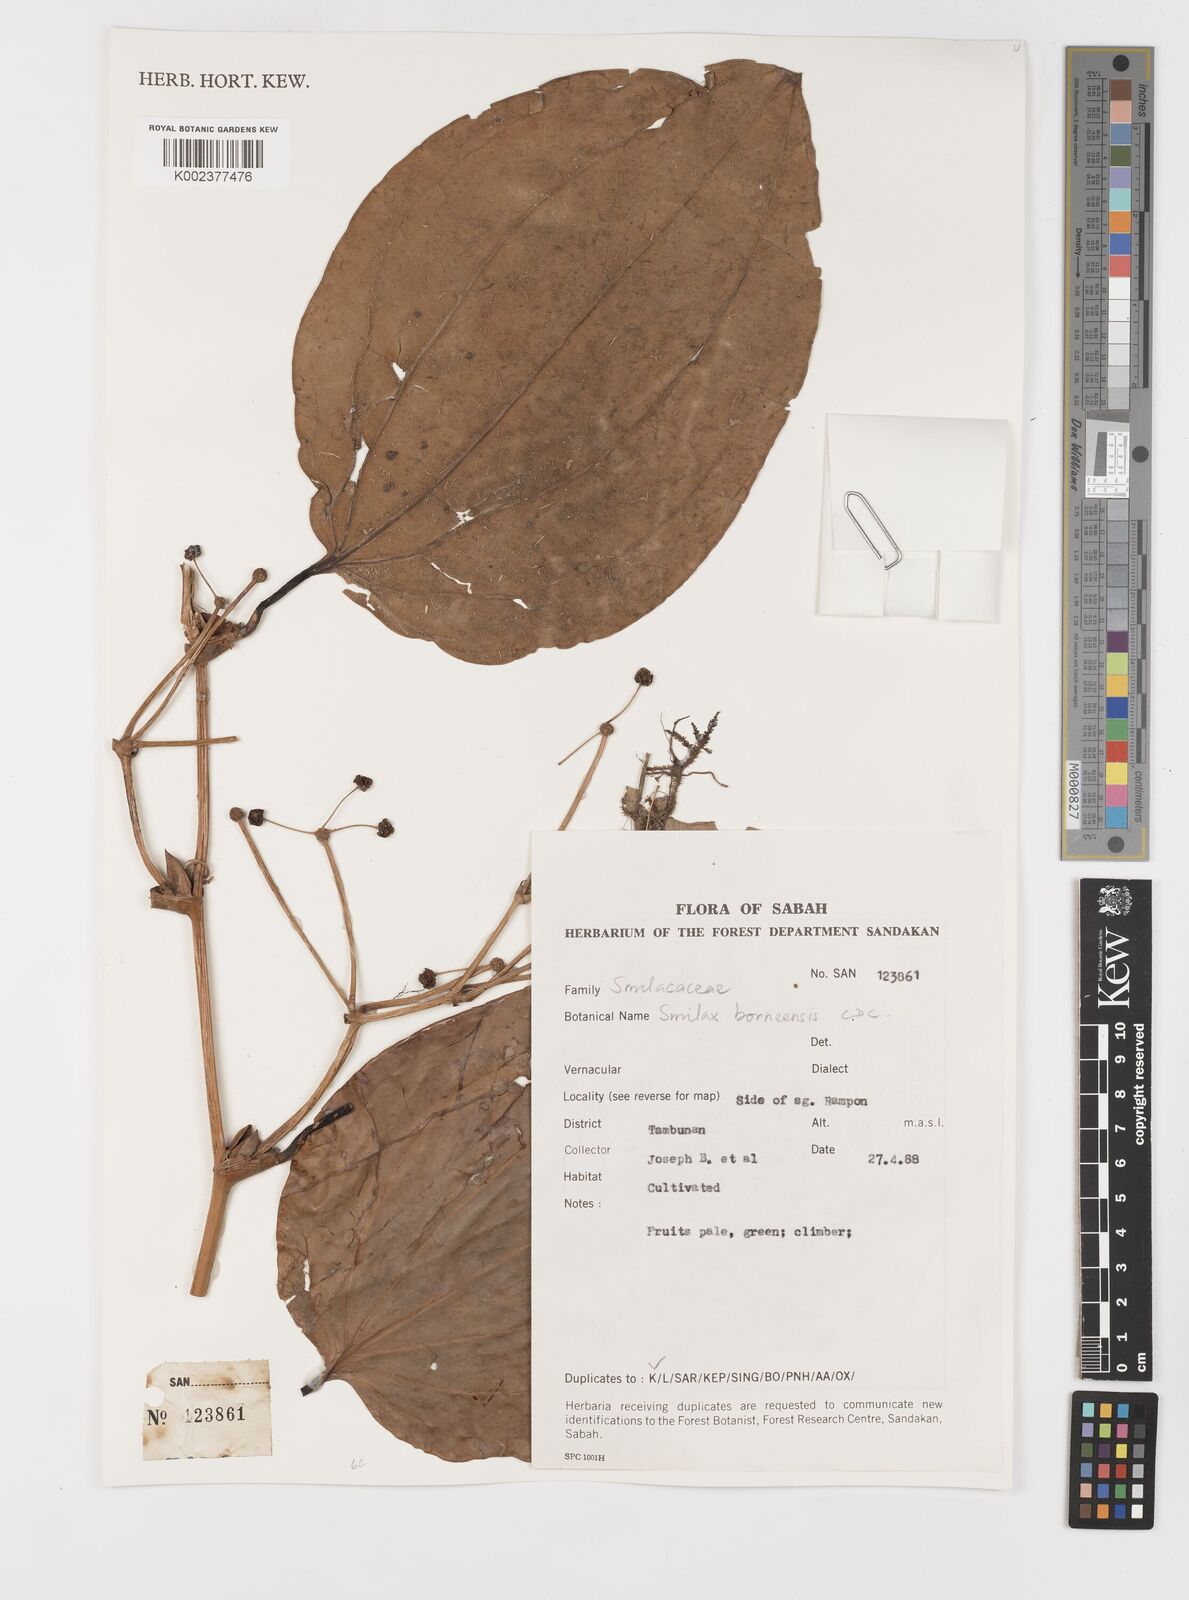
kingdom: Plantae
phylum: Tracheophyta
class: Liliopsida
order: Liliales
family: Smilacaceae
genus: Smilax
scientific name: Smilax borneensis
